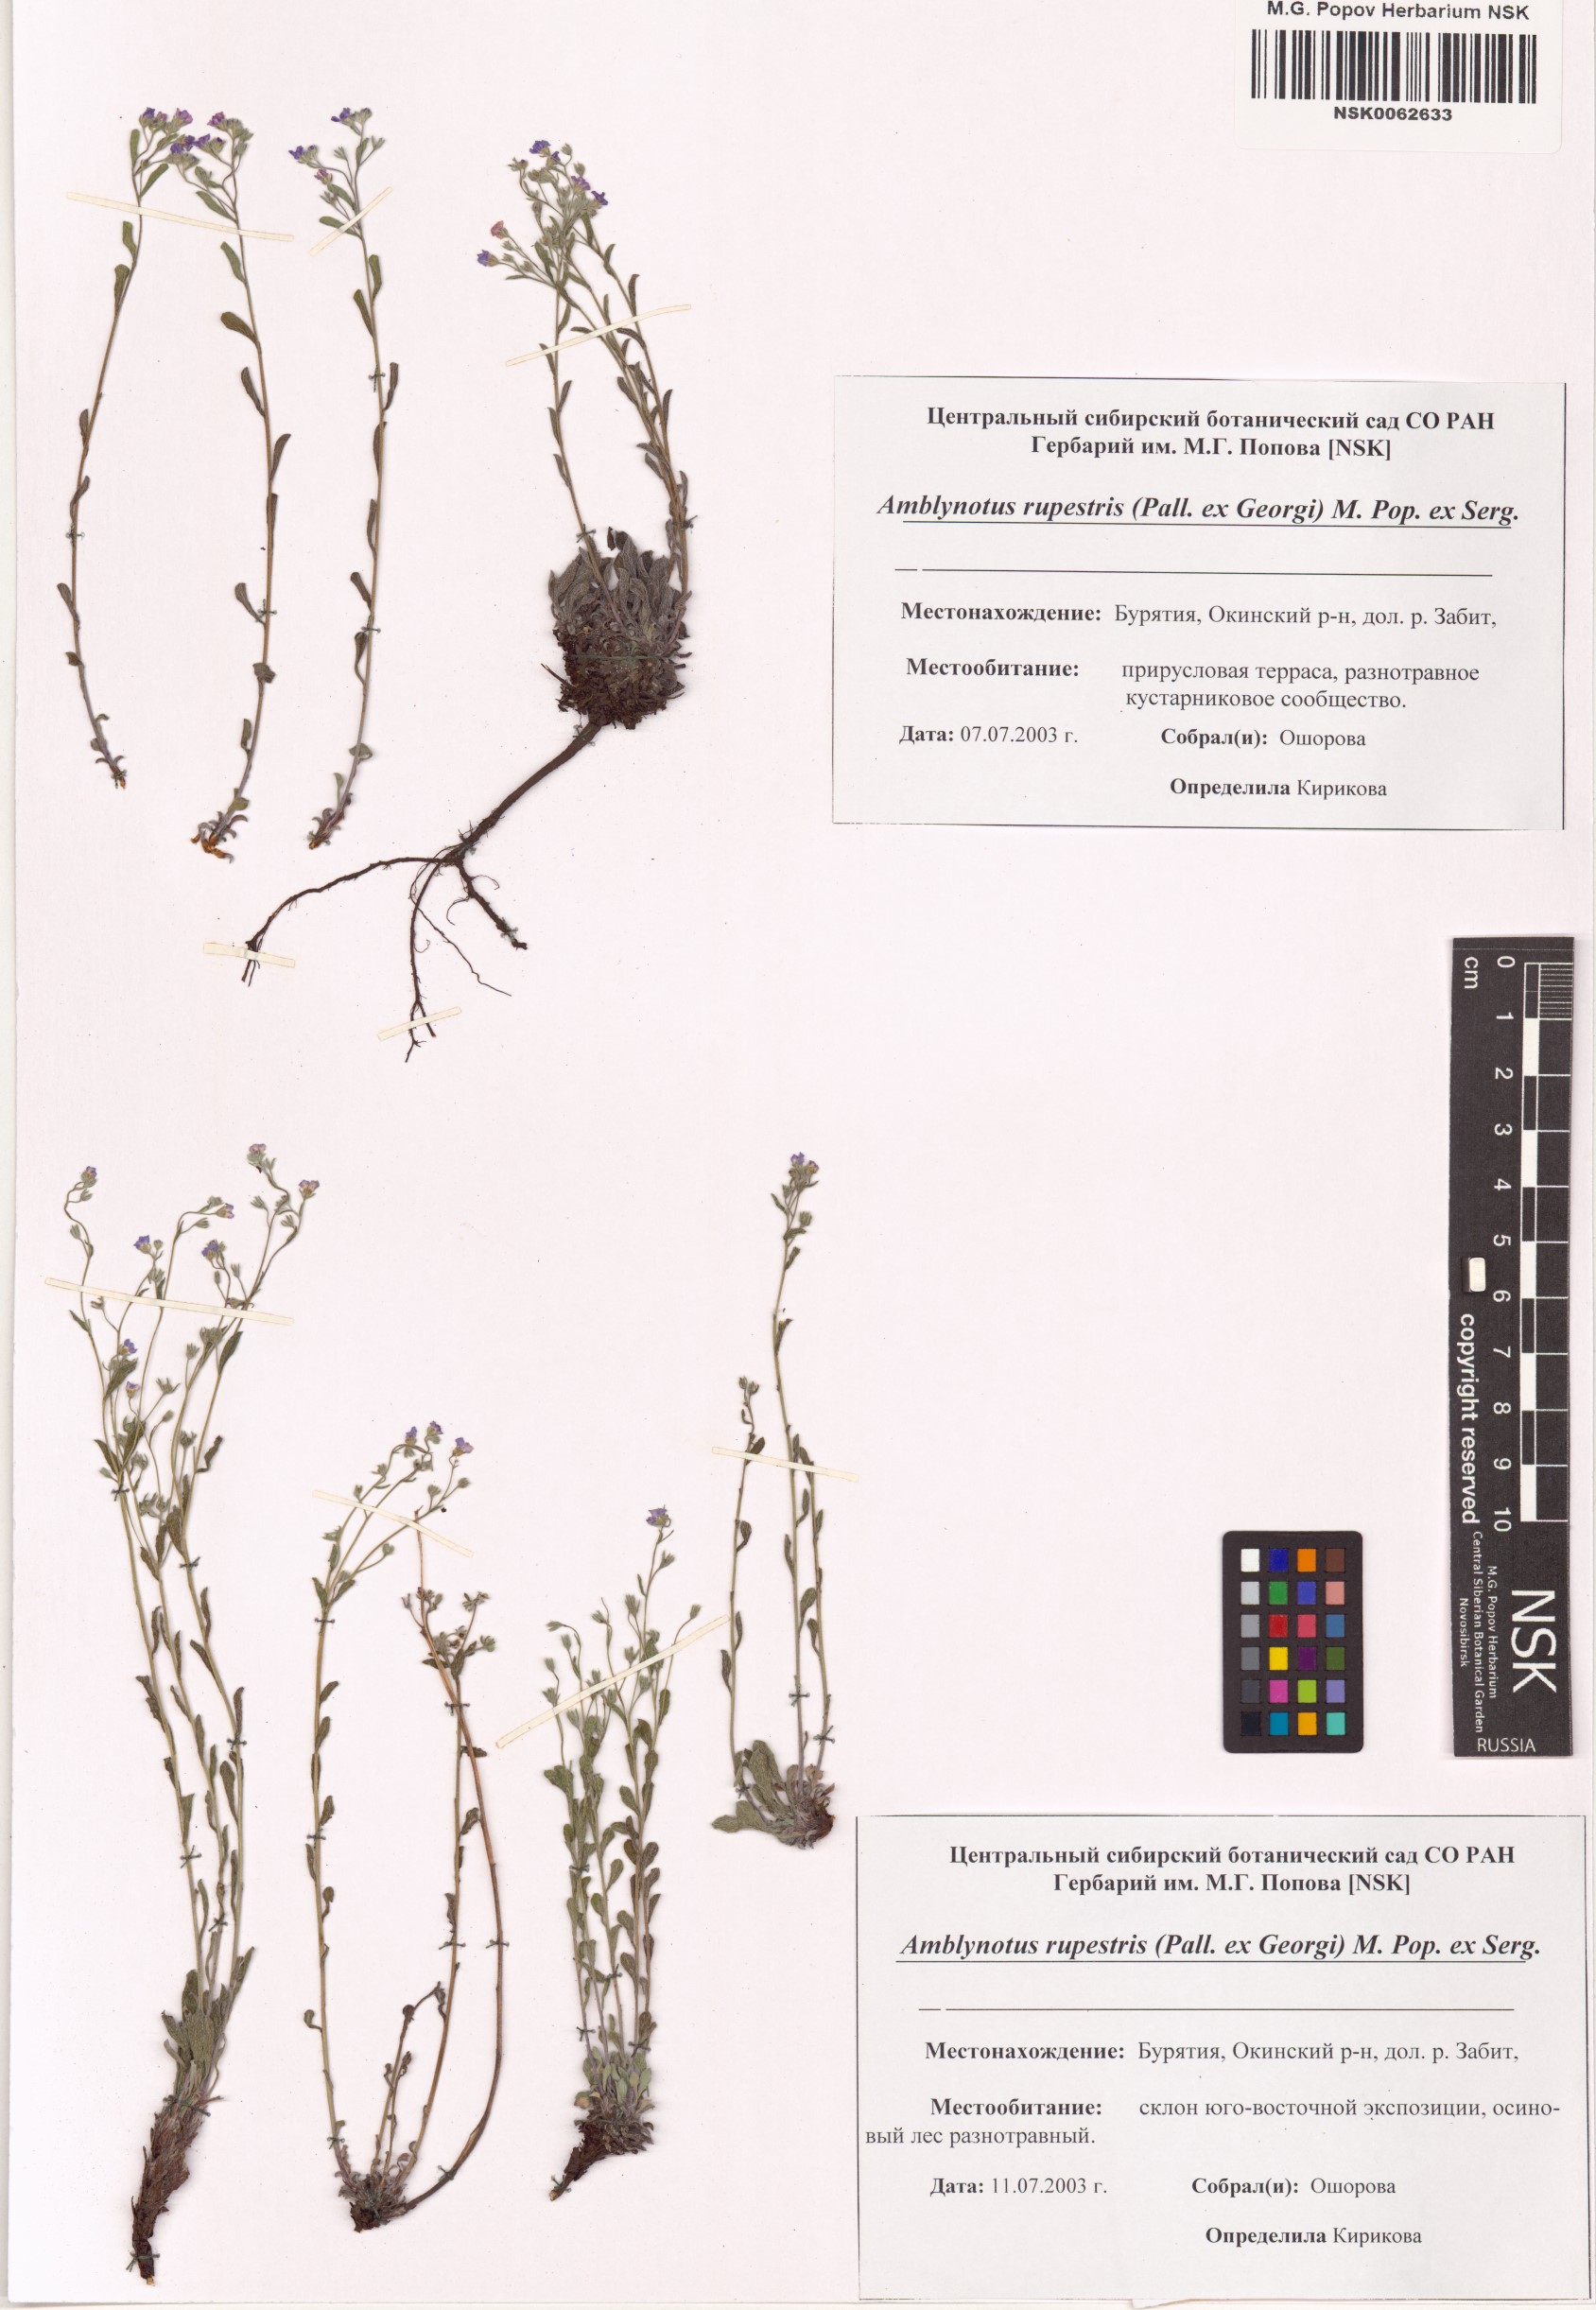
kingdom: Plantae
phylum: Tracheophyta
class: Magnoliopsida
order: Boraginales
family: Boraginaceae
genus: Eritrichium
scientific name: Eritrichium rupestre
